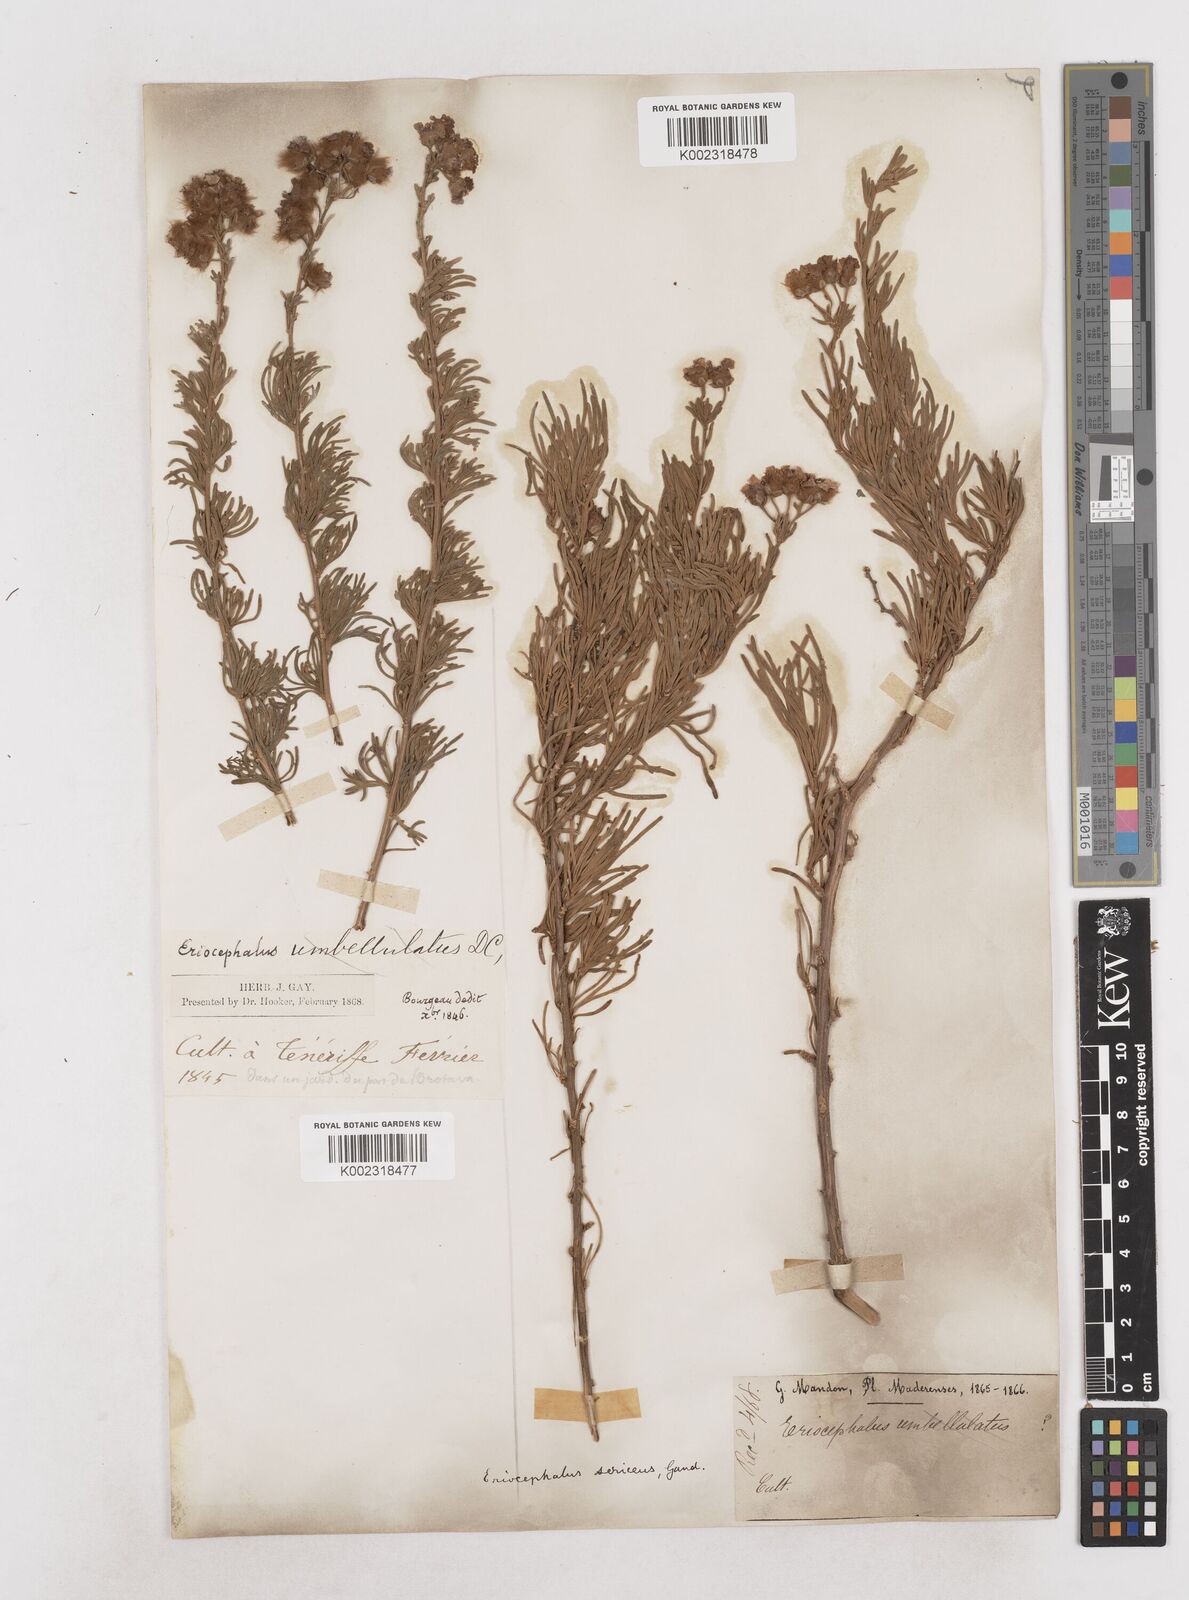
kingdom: Plantae
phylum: Tracheophyta
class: Magnoliopsida
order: Asterales
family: Asteraceae
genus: Eriocephalus
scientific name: Eriocephalus africanus
